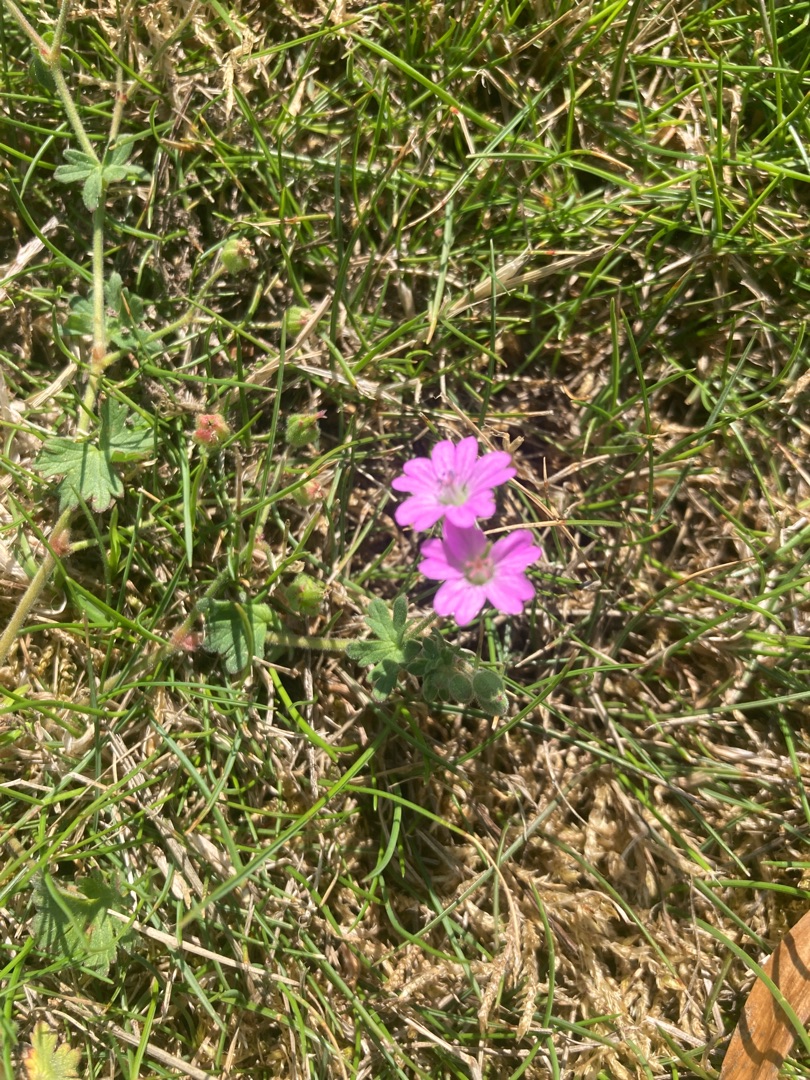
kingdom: Plantae
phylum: Tracheophyta
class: Magnoliopsida
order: Geraniales
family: Geraniaceae
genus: Geranium
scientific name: Geranium molle
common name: Blød storkenæb
